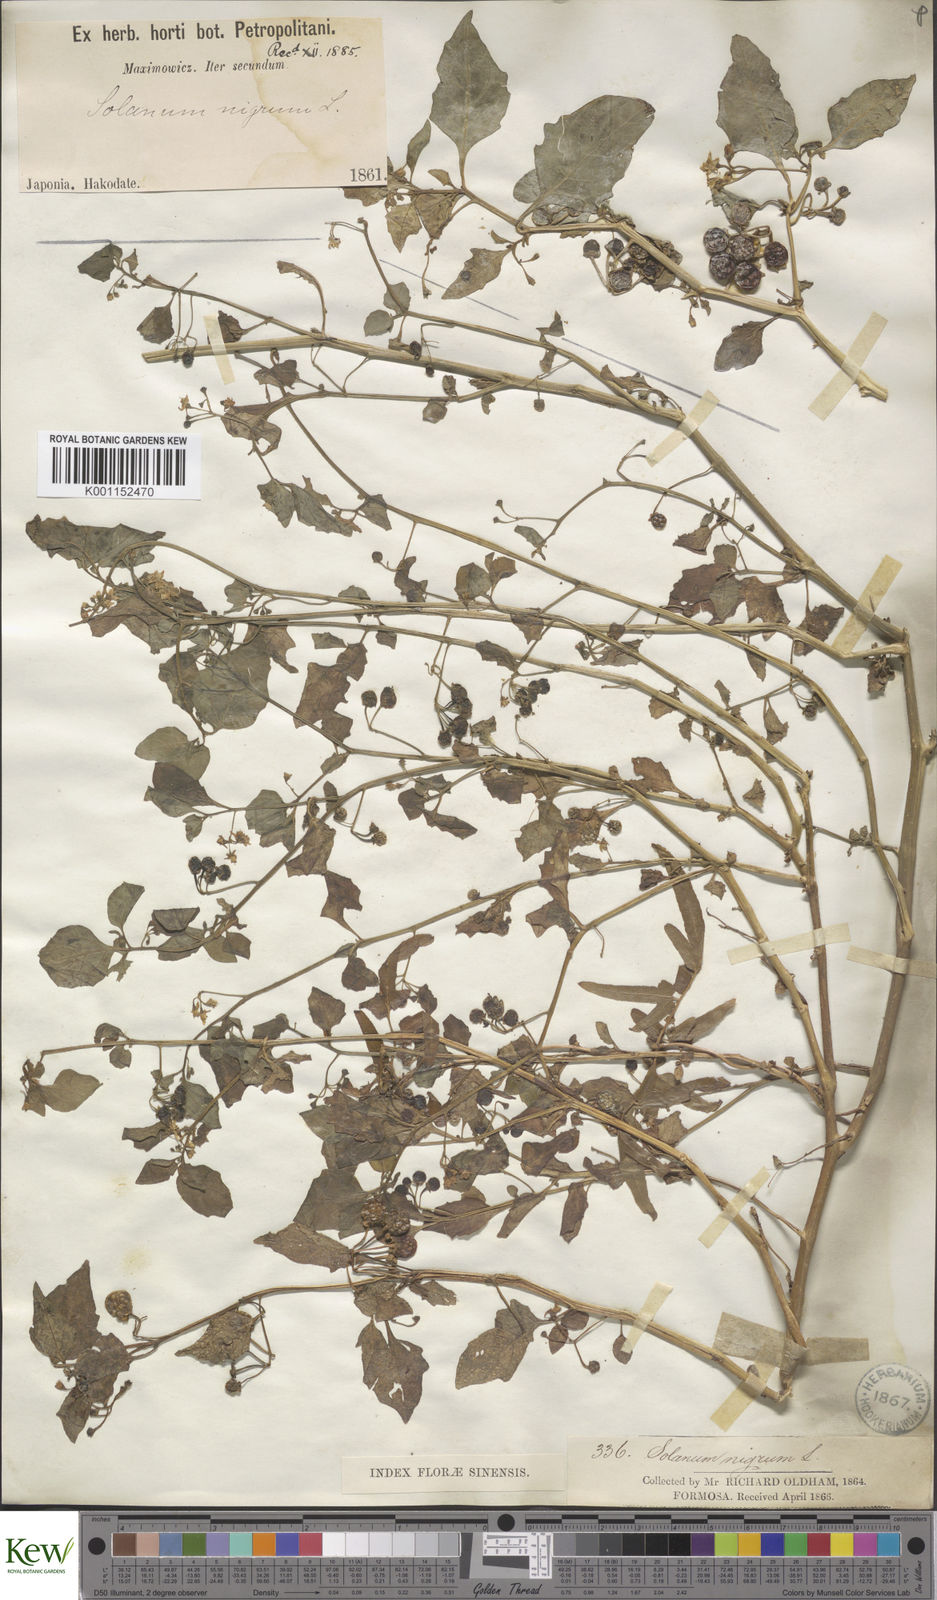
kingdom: Plantae
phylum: Tracheophyta
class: Magnoliopsida
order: Solanales
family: Solanaceae
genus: Solanum
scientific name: Solanum
